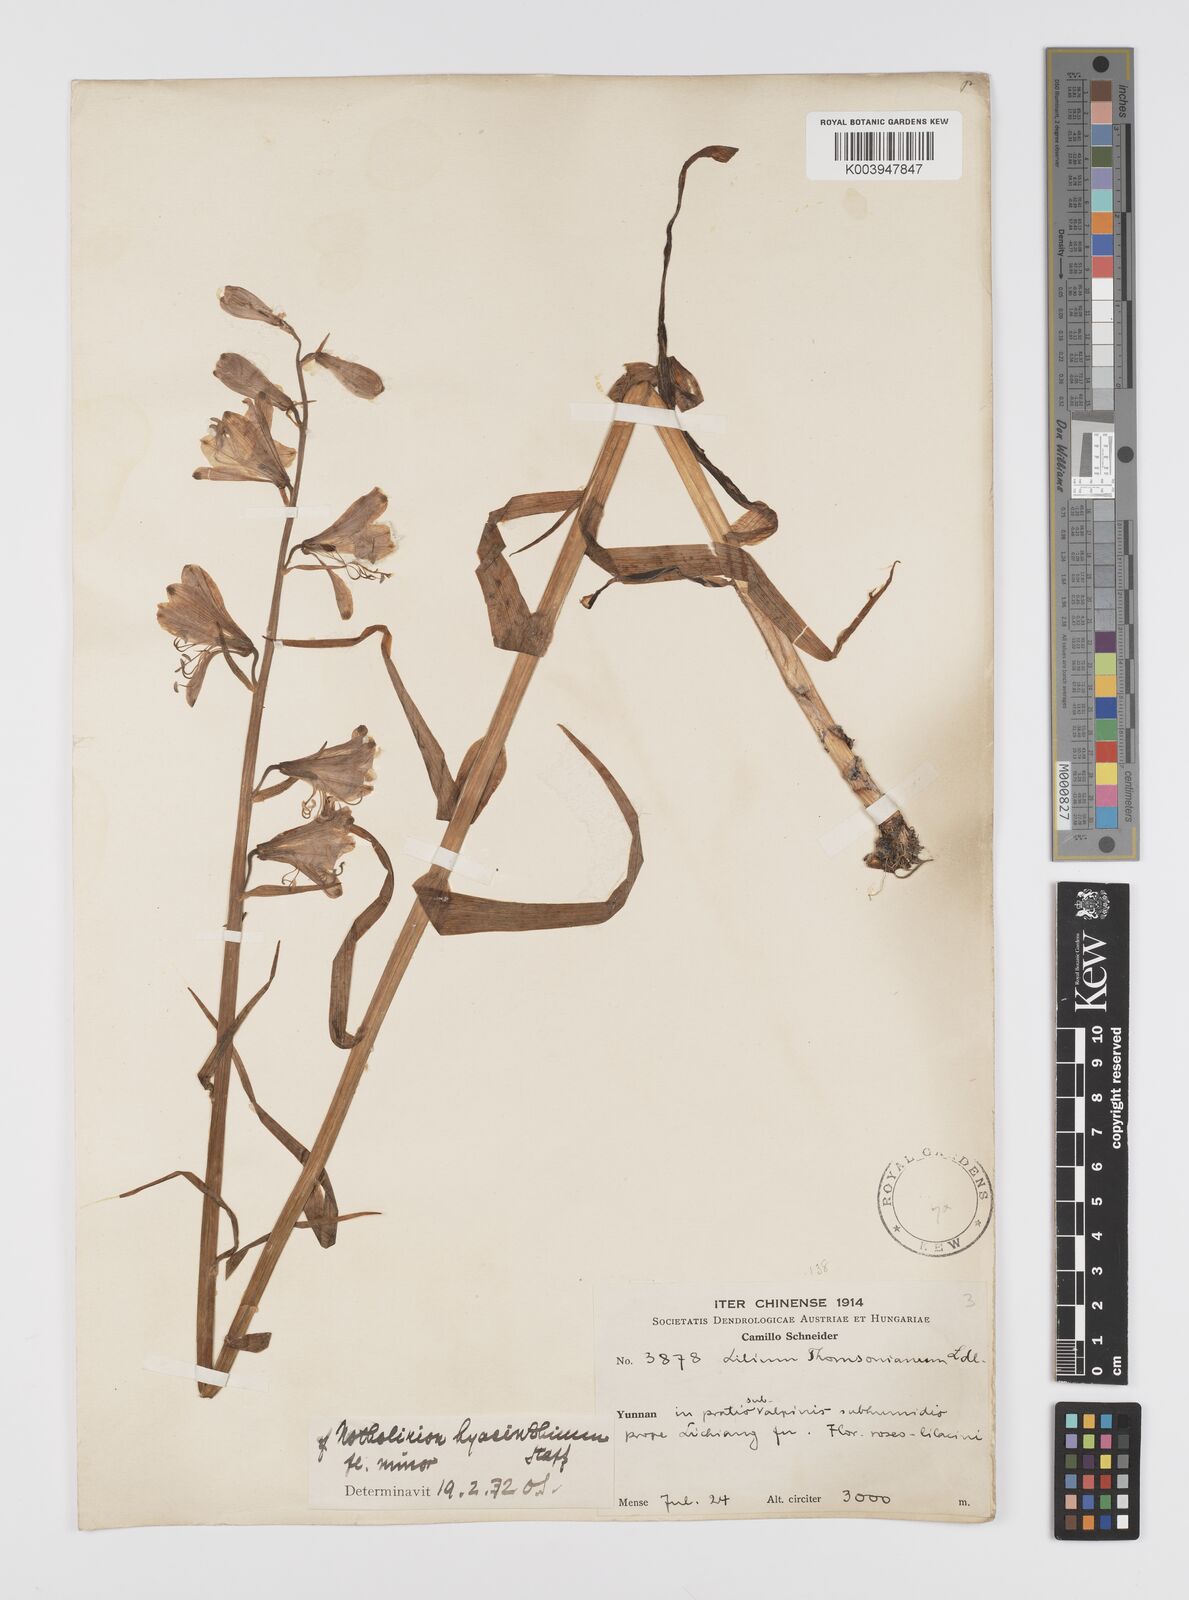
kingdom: Plantae
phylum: Tracheophyta
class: Liliopsida
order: Liliales
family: Liliaceae
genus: Notholirion
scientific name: Notholirion bulbuliferum
